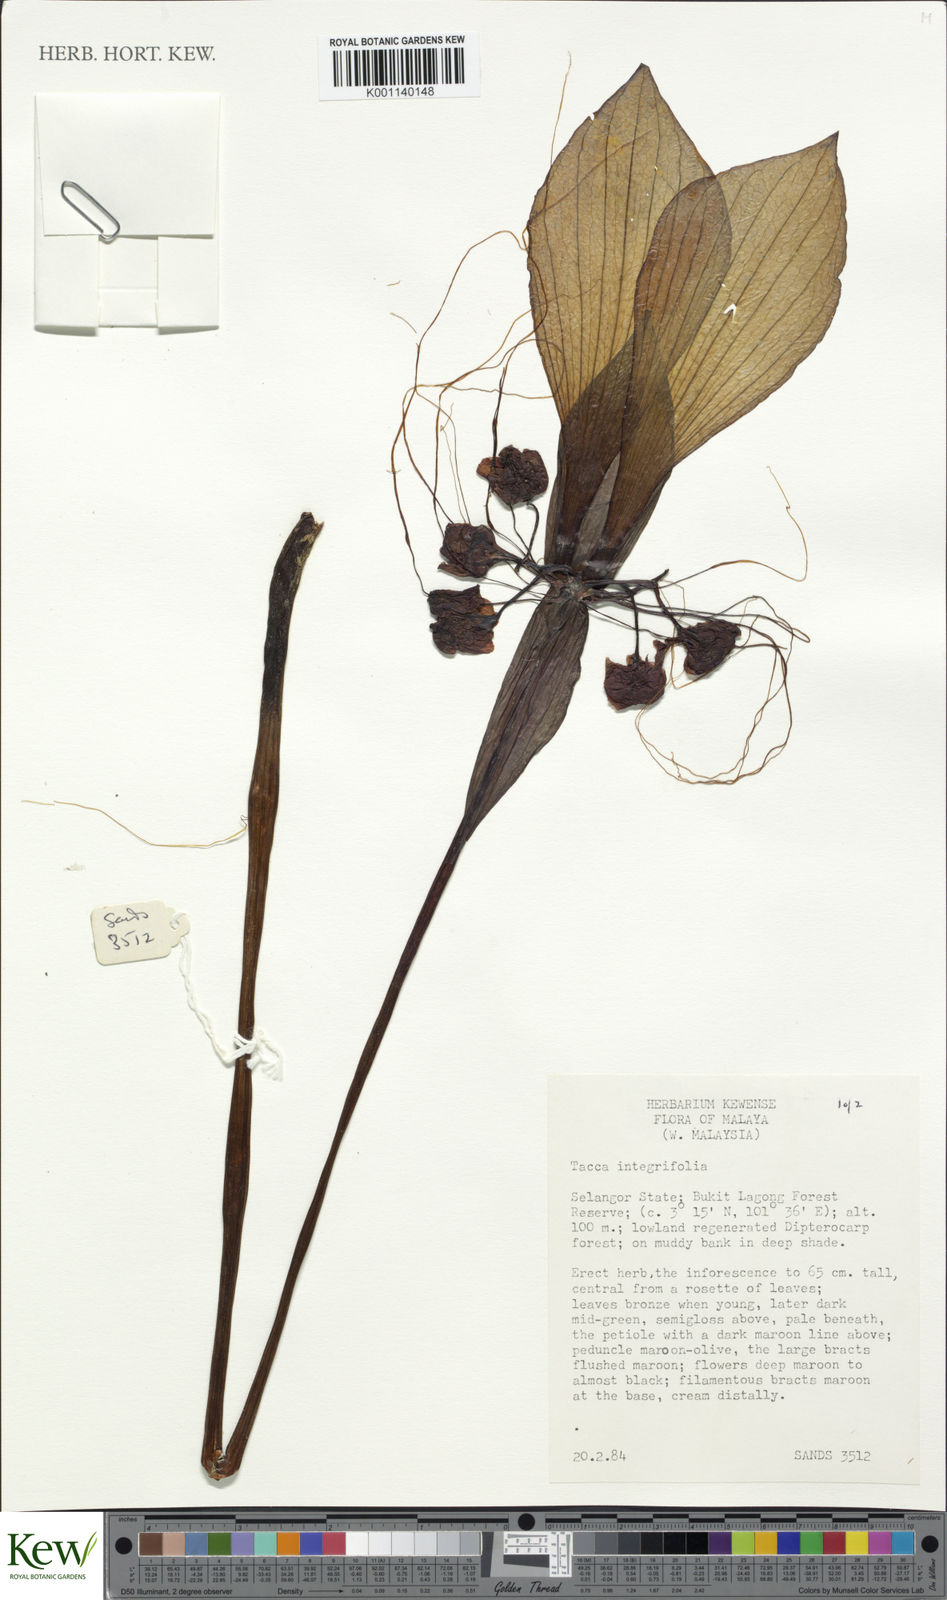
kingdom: Plantae
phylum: Tracheophyta
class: Liliopsida
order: Dioscoreales
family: Dioscoreaceae
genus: Tacca
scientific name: Tacca integrifolia
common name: Batplant
